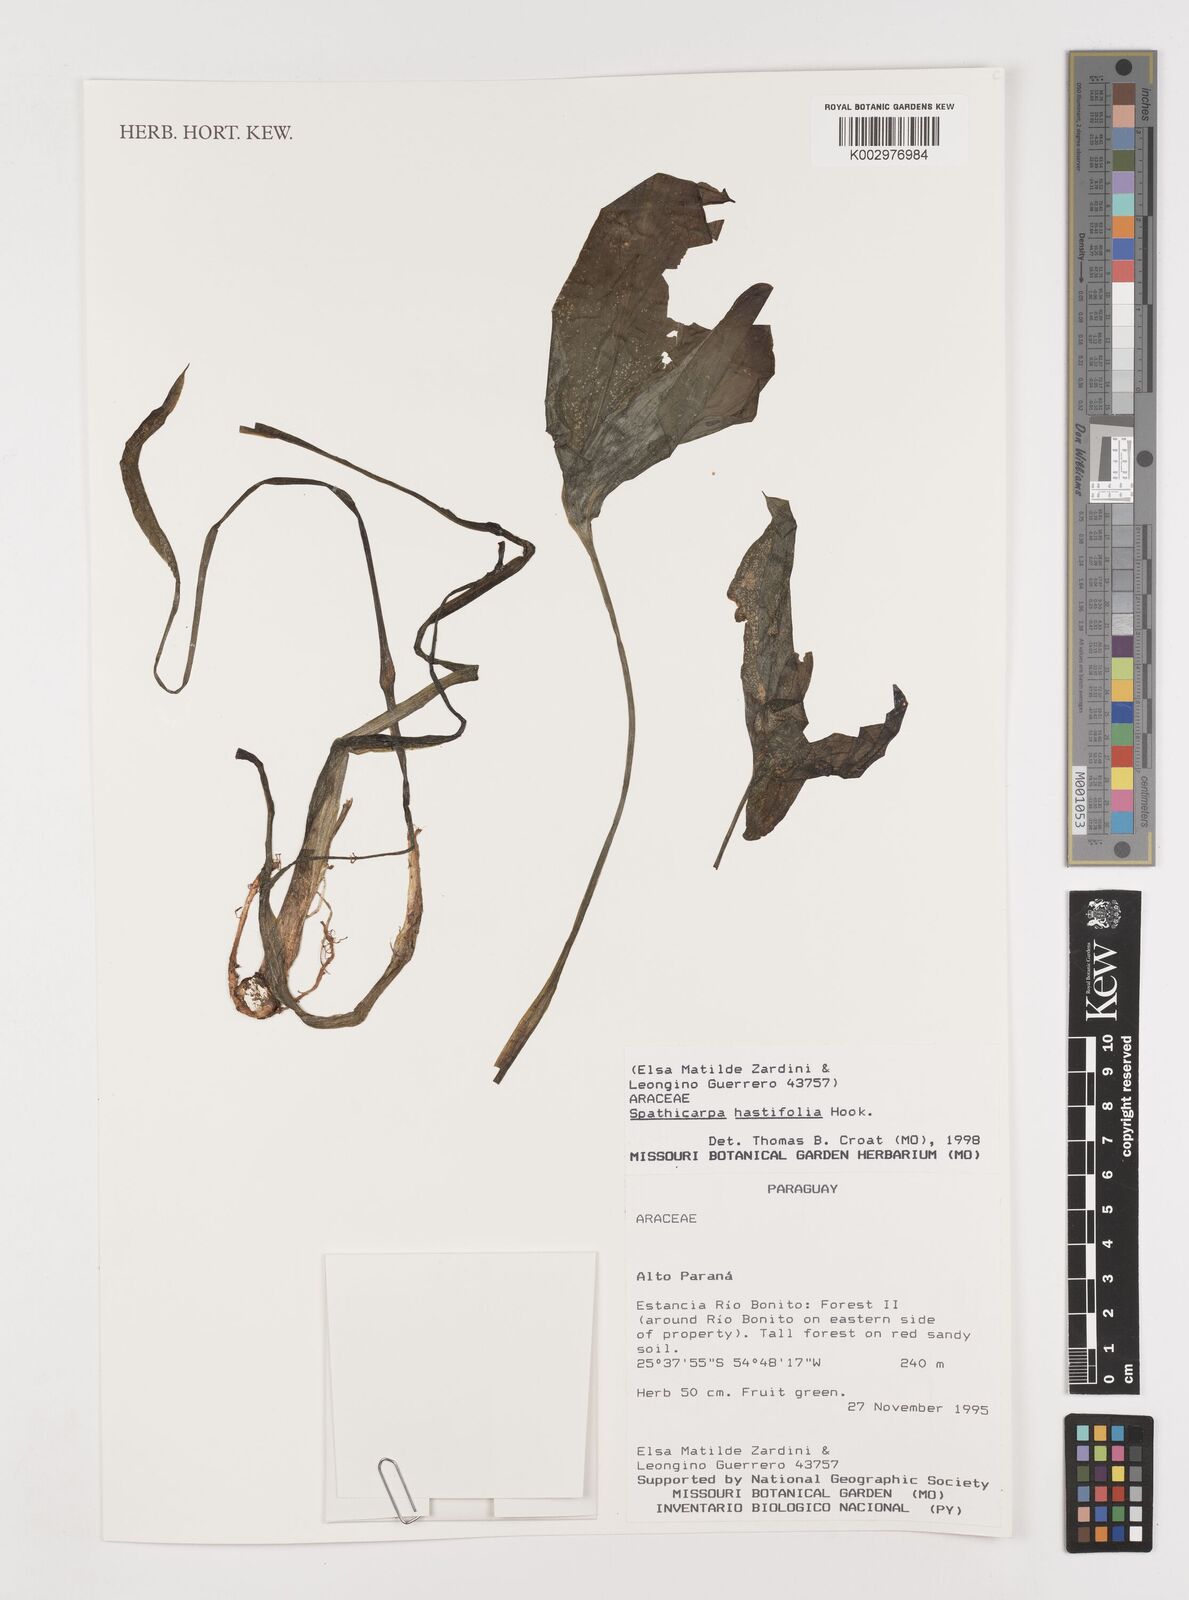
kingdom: Plantae
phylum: Tracheophyta
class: Liliopsida
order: Alismatales
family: Araceae
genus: Spathicarpa
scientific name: Spathicarpa hastifolia
